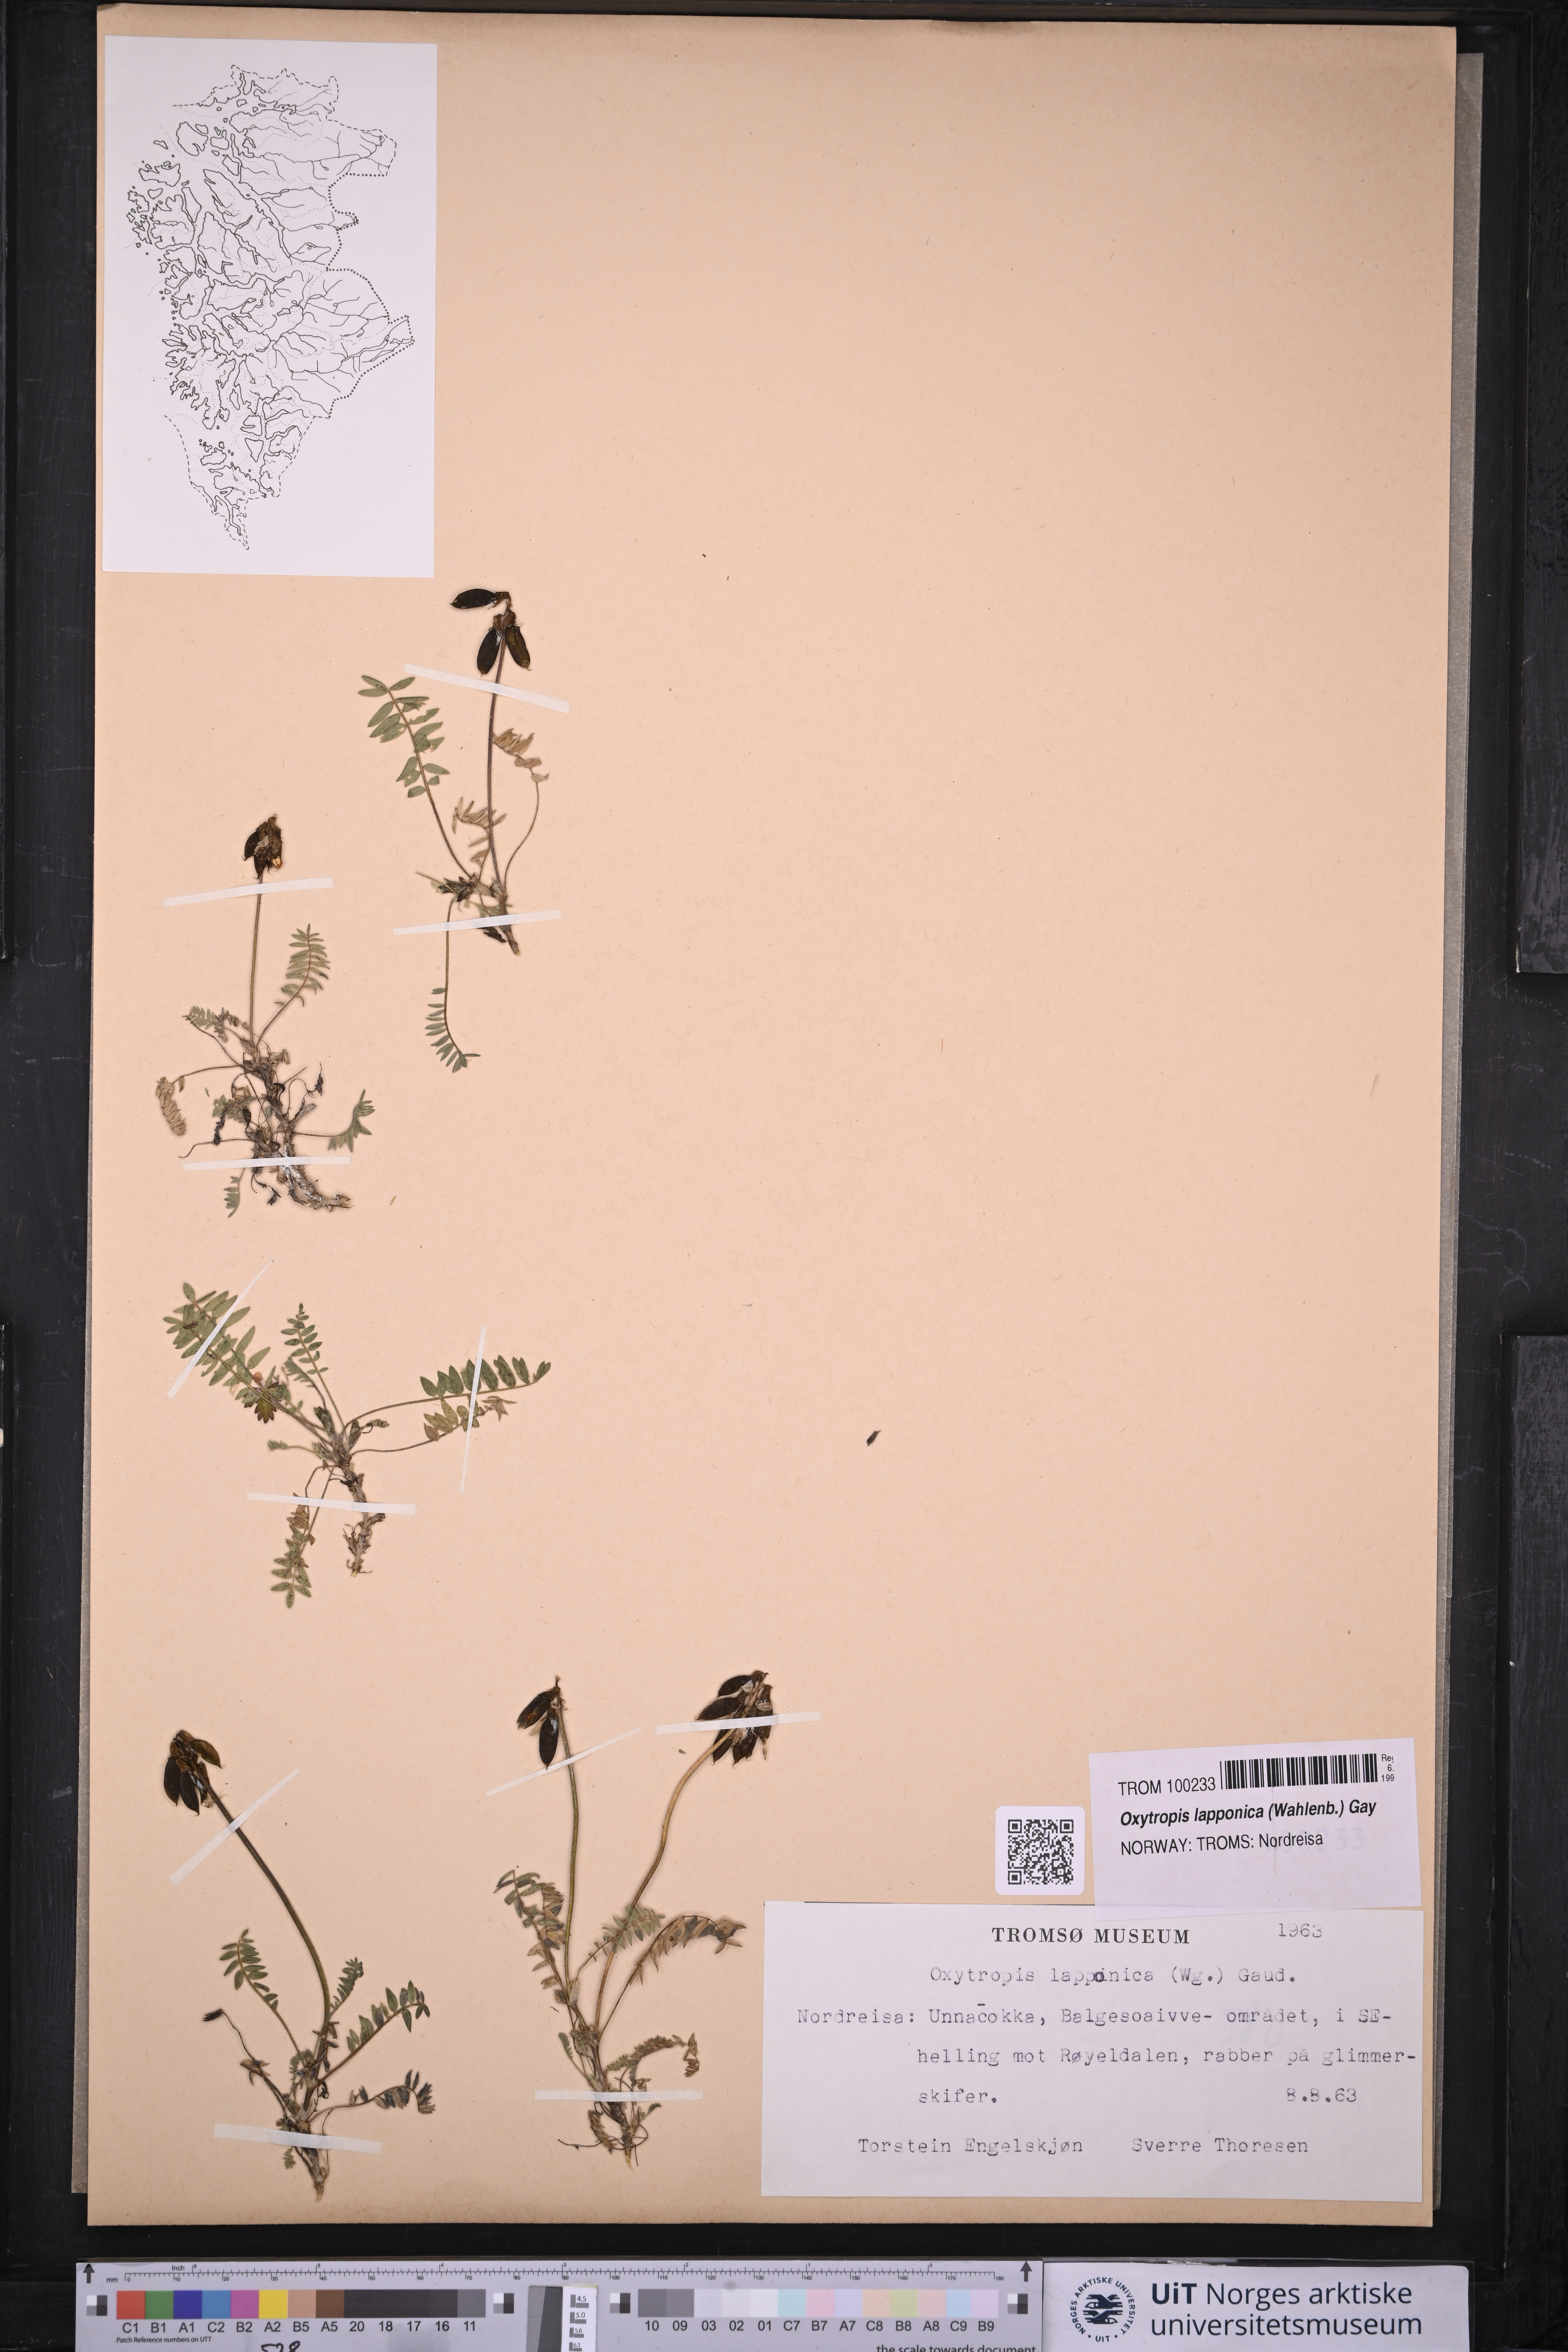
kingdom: Plantae
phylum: Tracheophyta
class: Magnoliopsida
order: Fabales
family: Fabaceae
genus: Oxytropis
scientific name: Oxytropis lapponica
